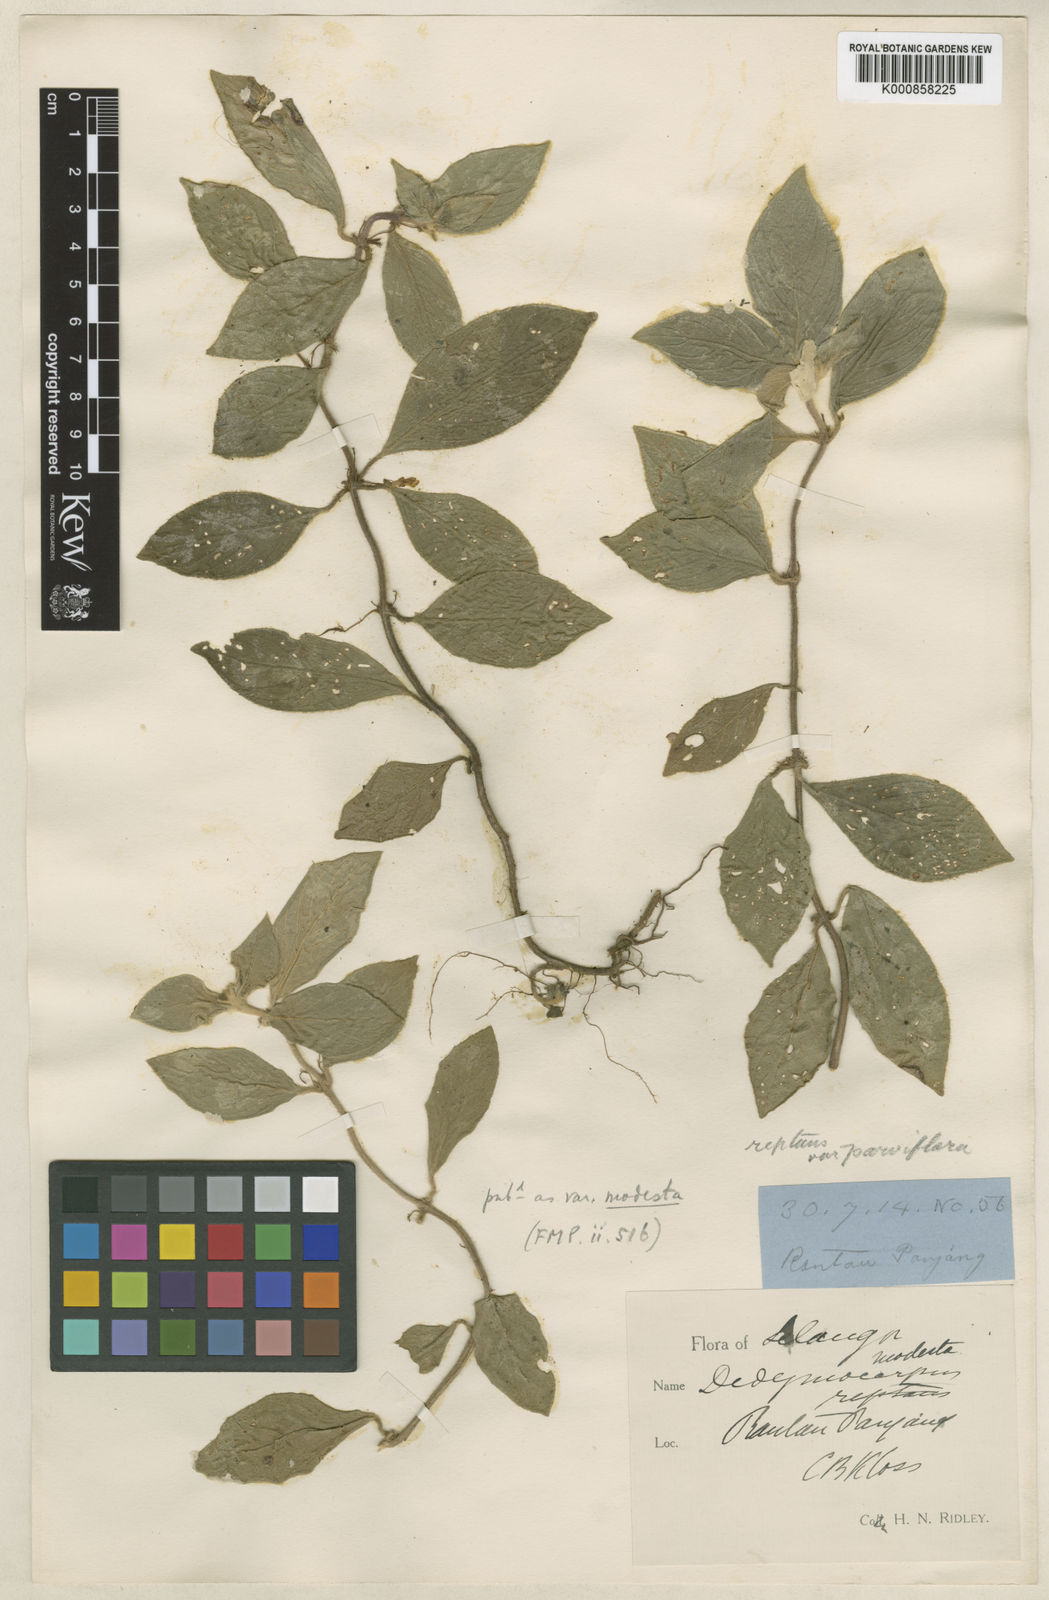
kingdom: Plantae
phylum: Tracheophyta
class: Magnoliopsida
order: Lamiales
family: Gesneriaceae
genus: Codonoboea
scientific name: Codonoboea reptans
